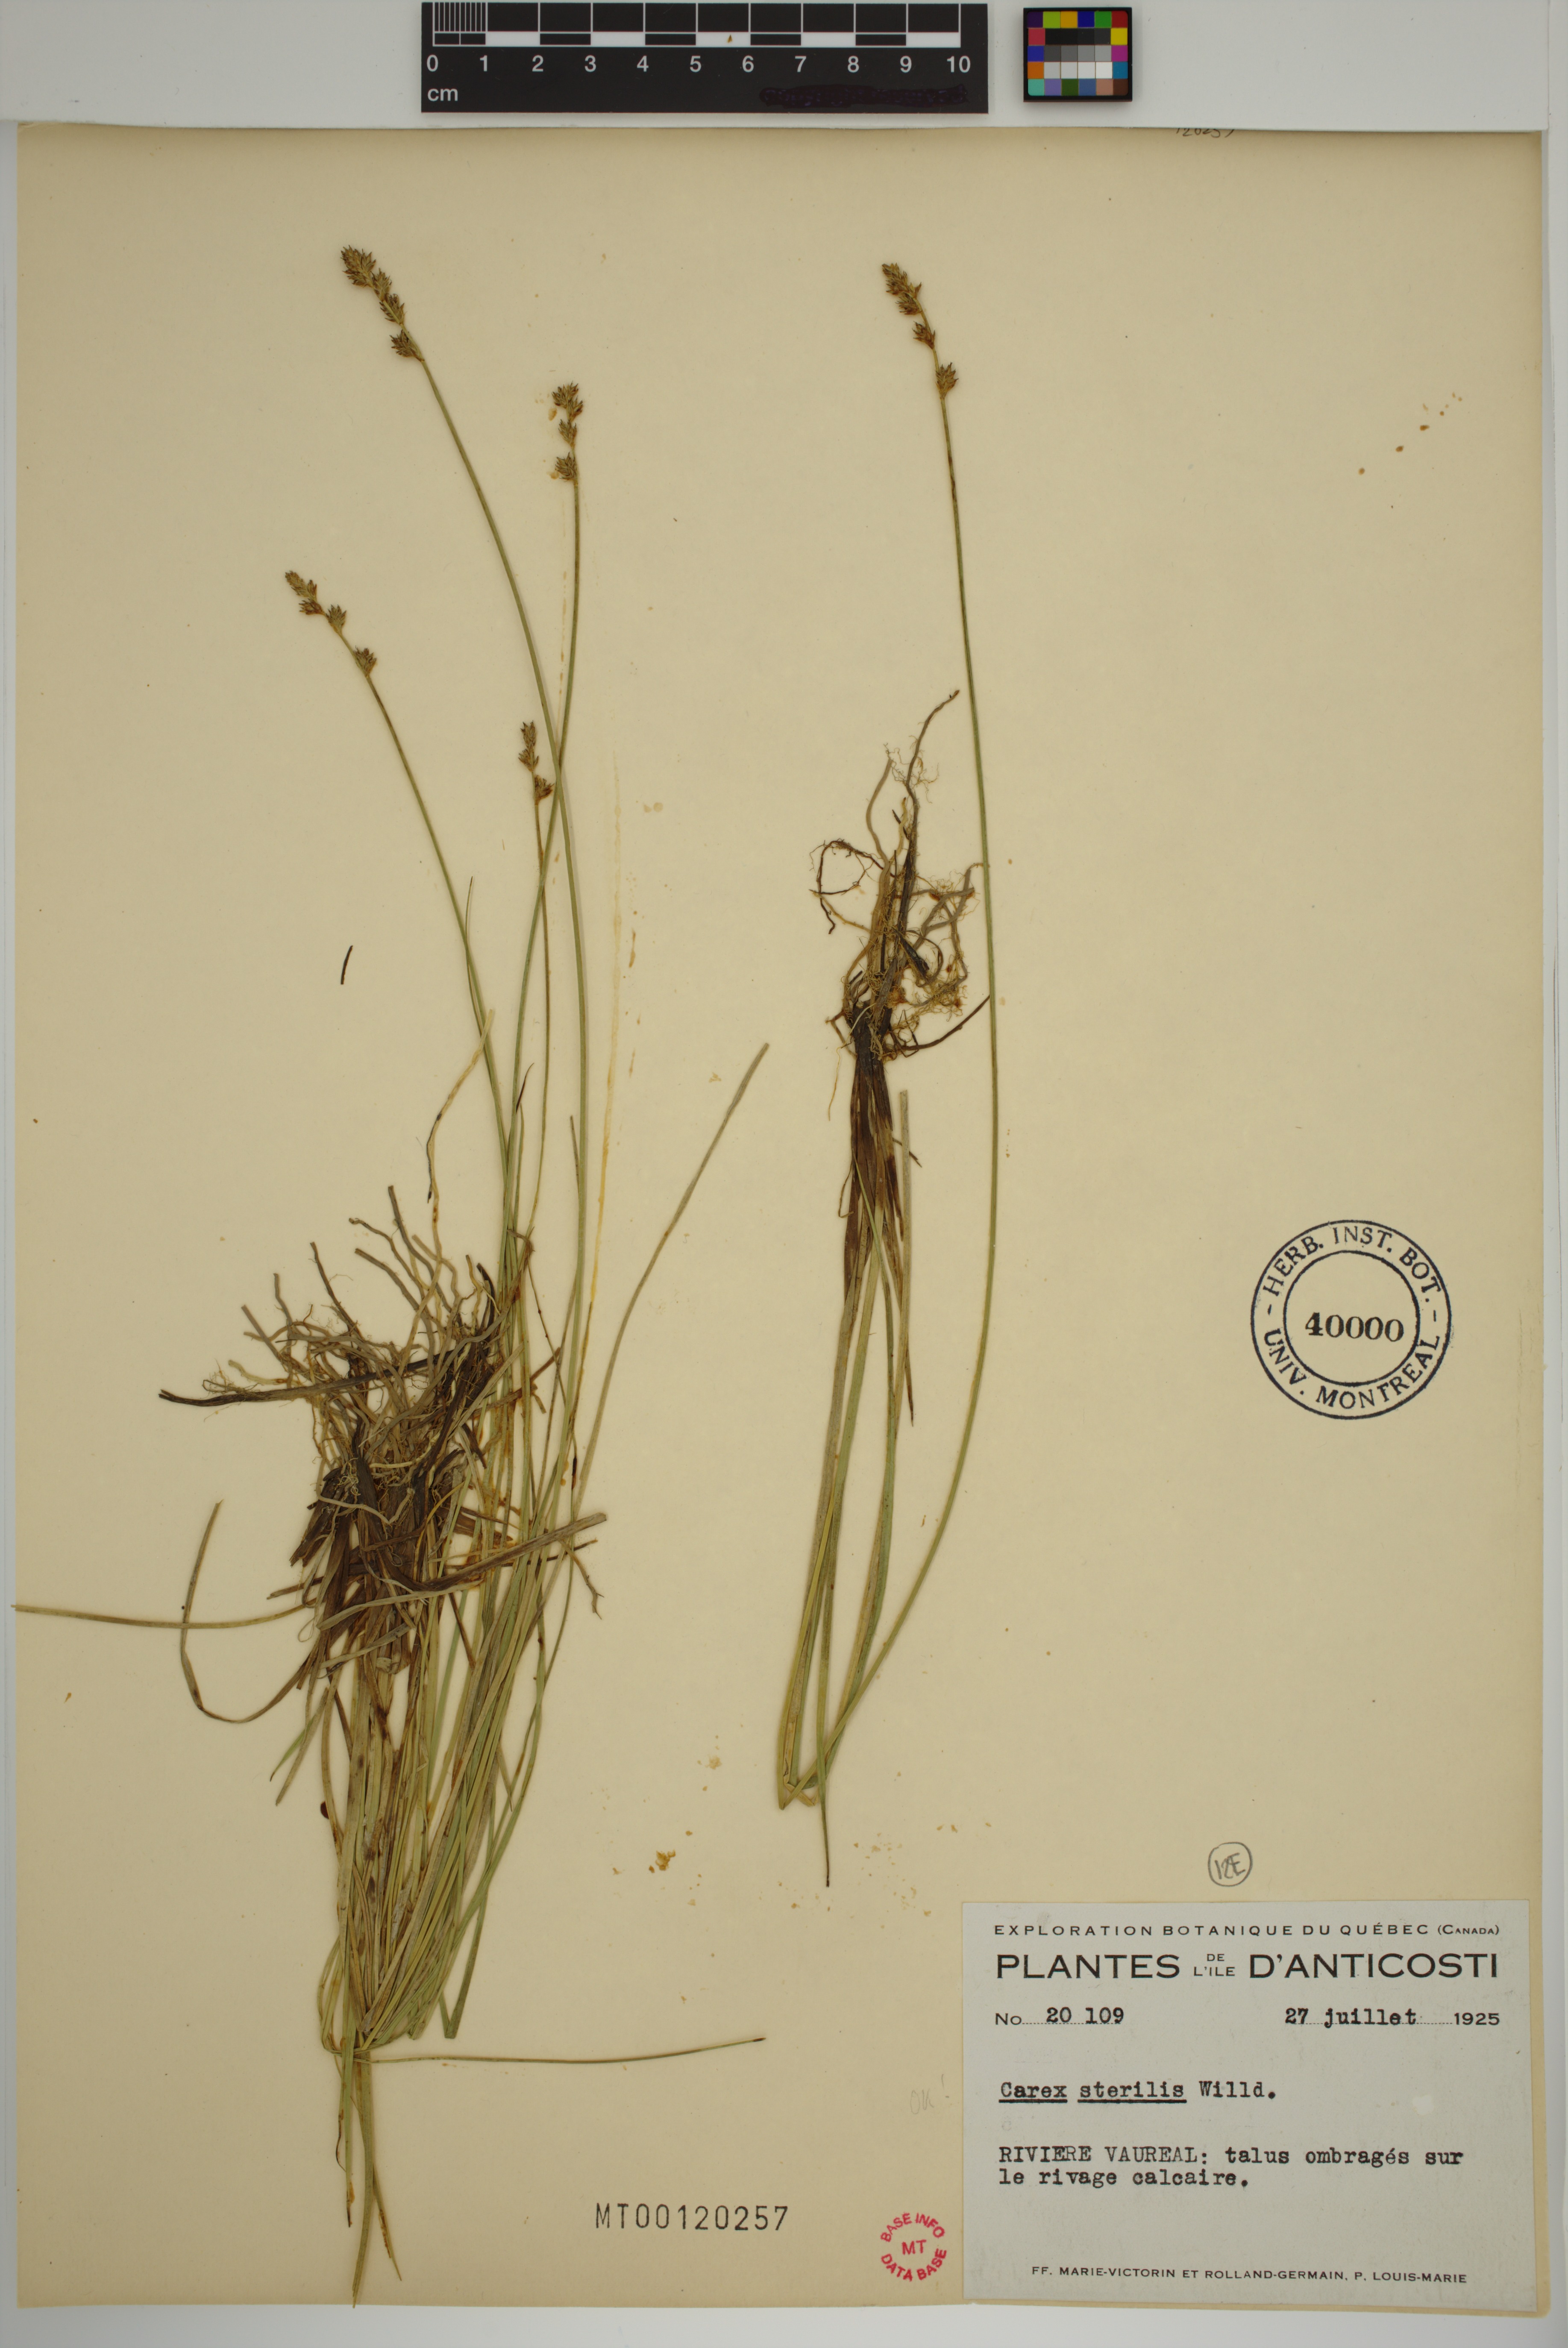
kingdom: Plantae
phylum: Tracheophyta
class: Liliopsida
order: Poales
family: Cyperaceae
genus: Carex
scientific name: Carex sterilis
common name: Dioecious sedge
